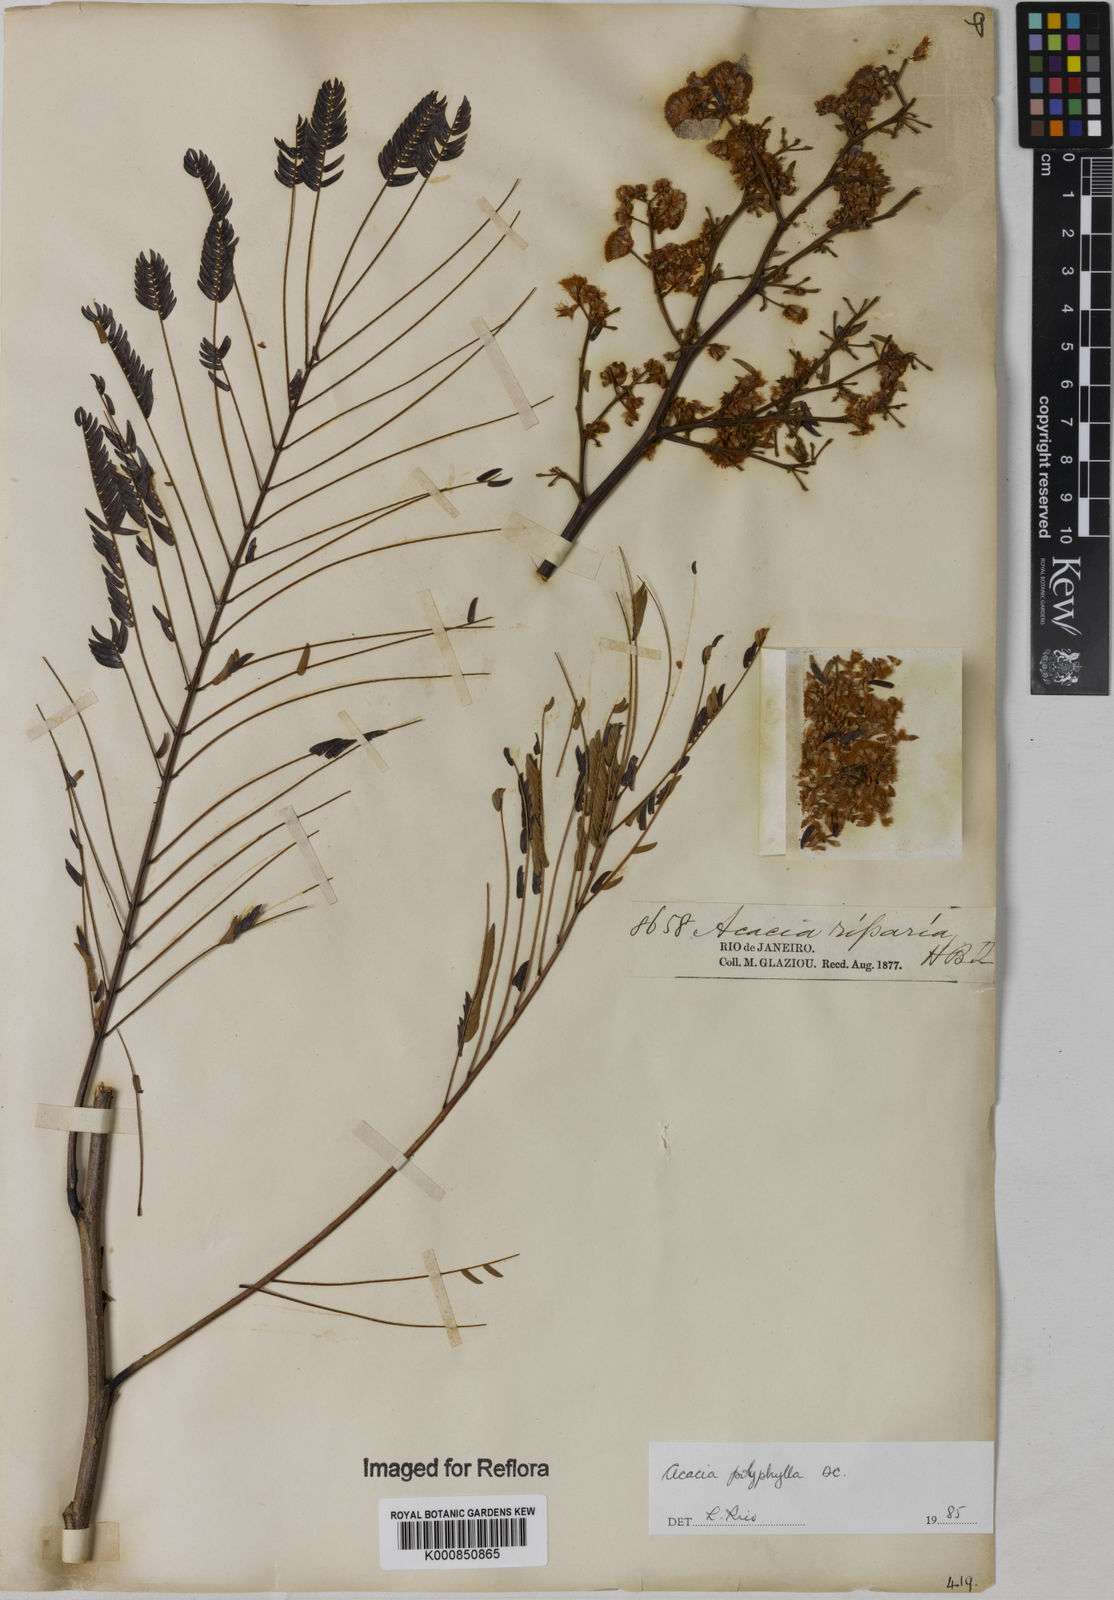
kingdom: Plantae
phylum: Tracheophyta
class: Magnoliopsida
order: Fabales
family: Fabaceae
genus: Senegalia
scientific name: Senegalia polyphylla
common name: White-tamarind
